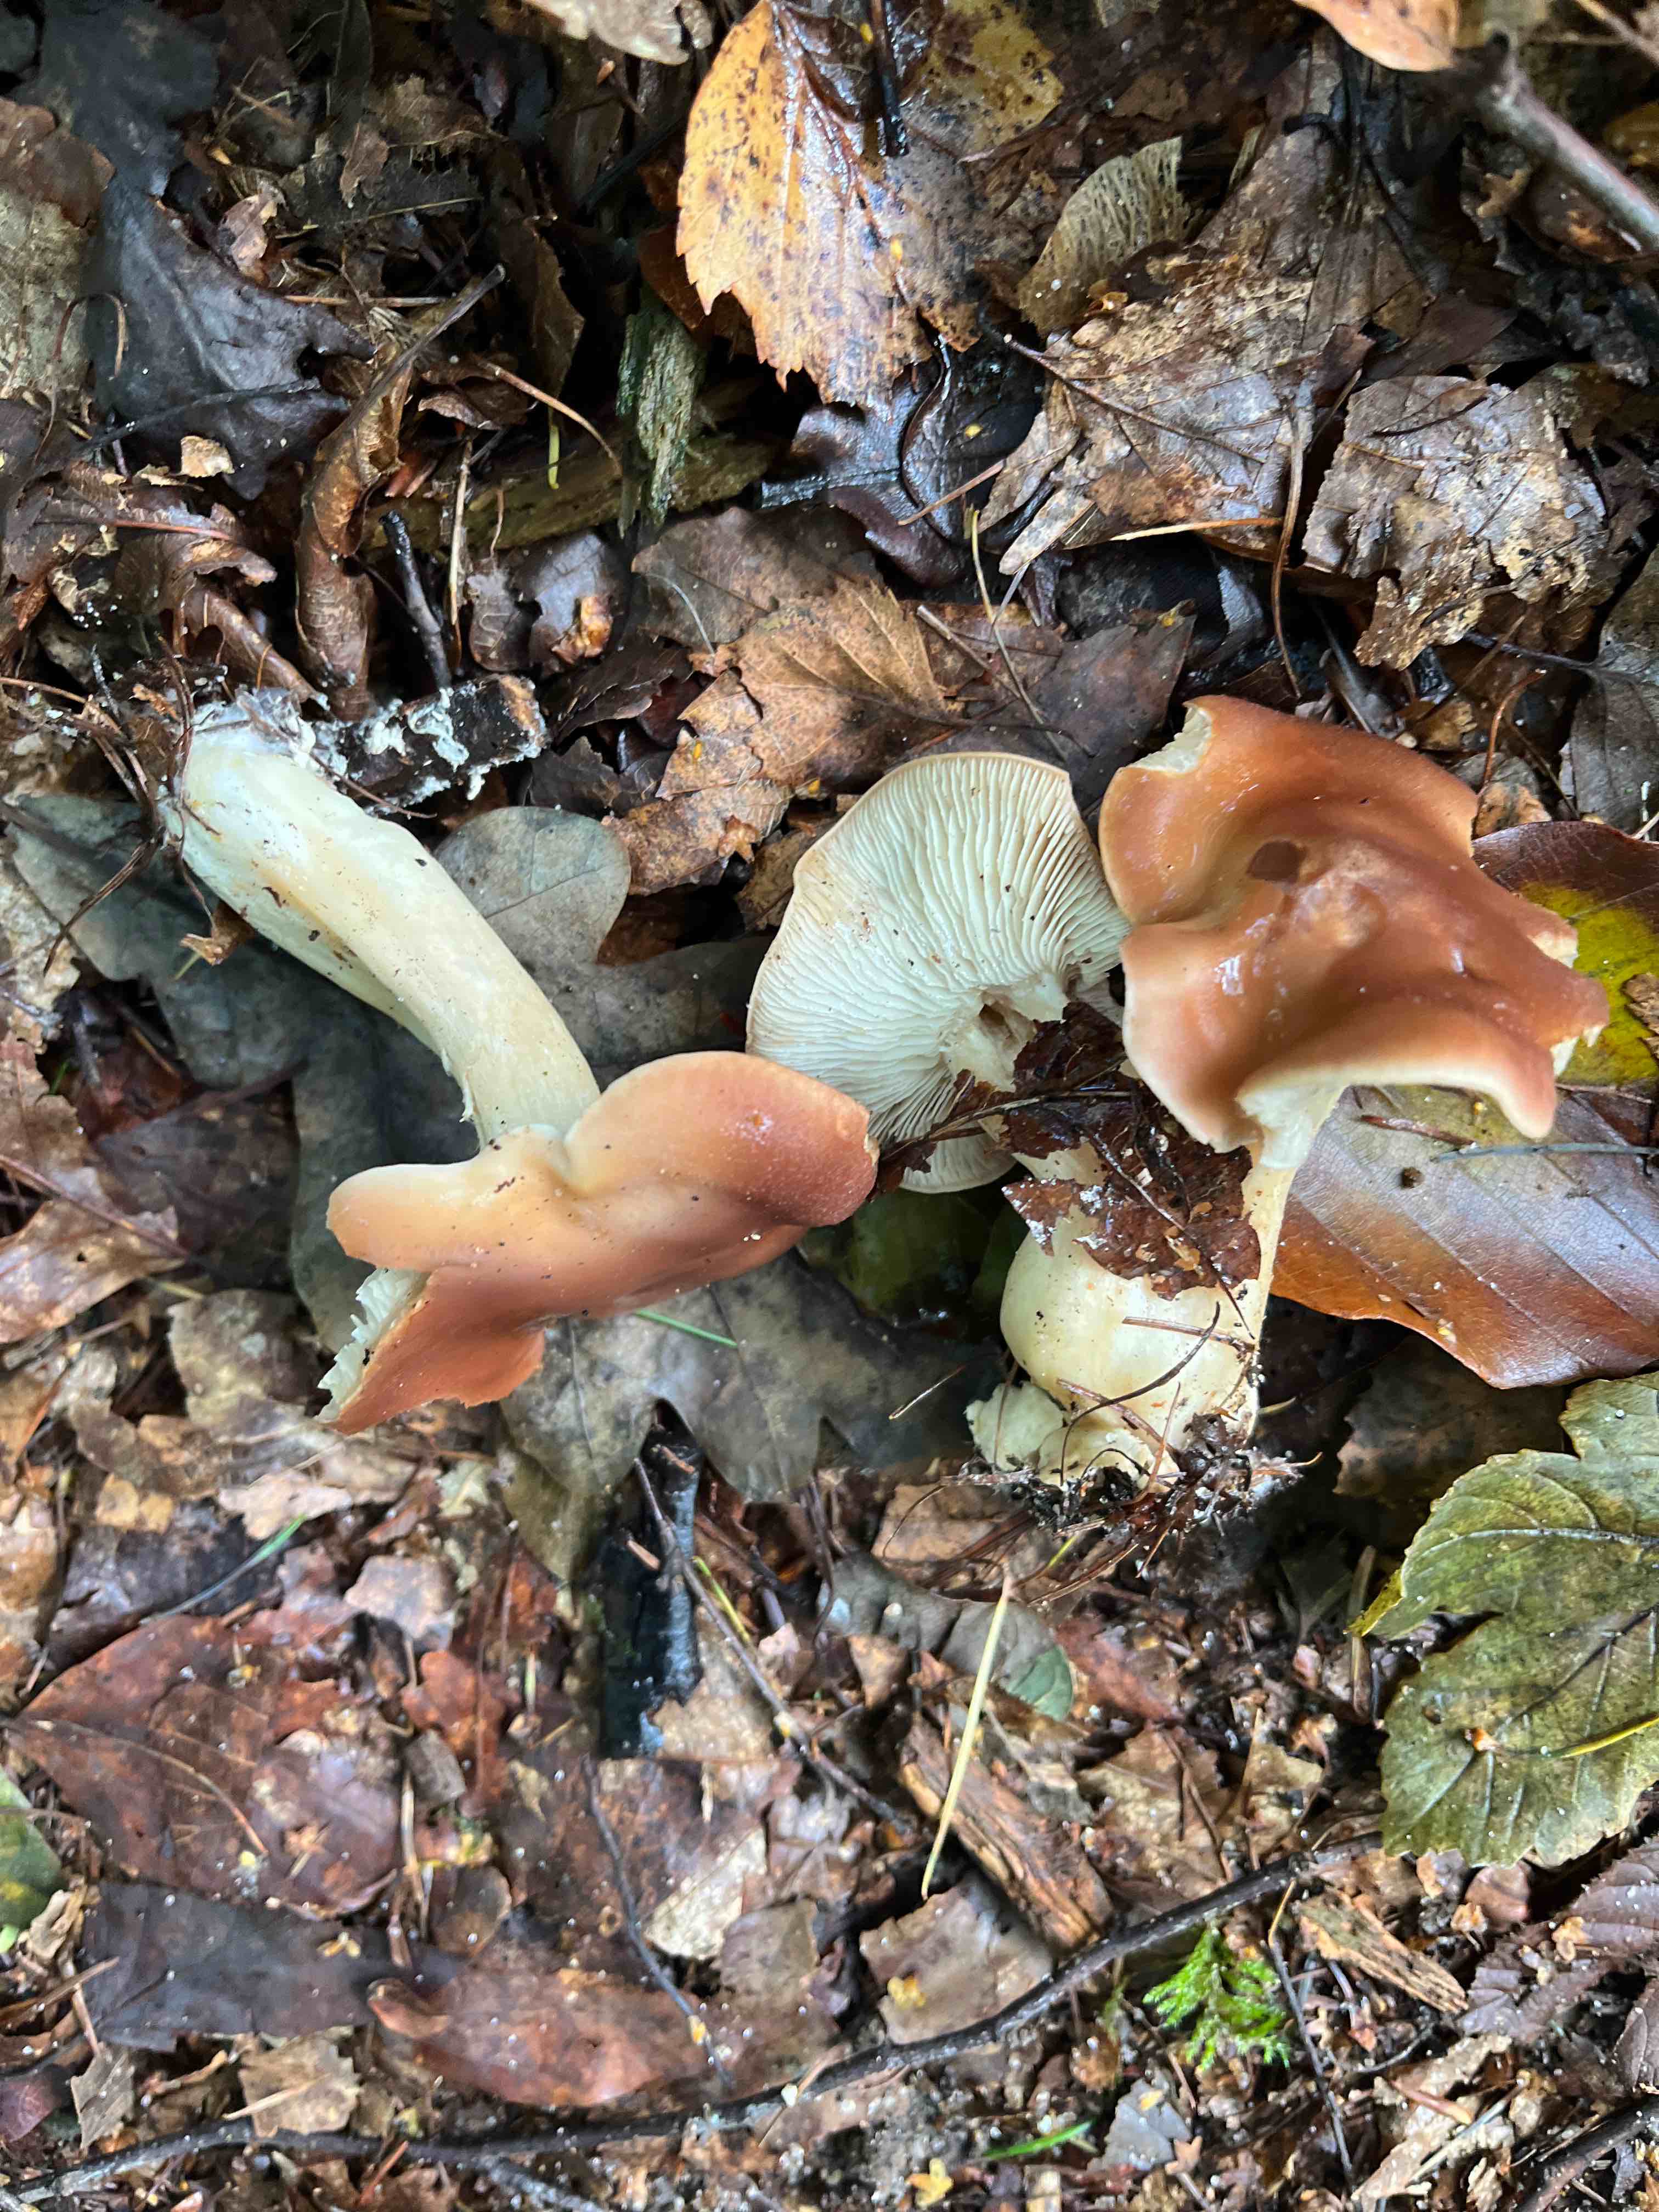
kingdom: Fungi
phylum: Basidiomycota
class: Agaricomycetes
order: Agaricales
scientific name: Agaricales
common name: champignonordenen
